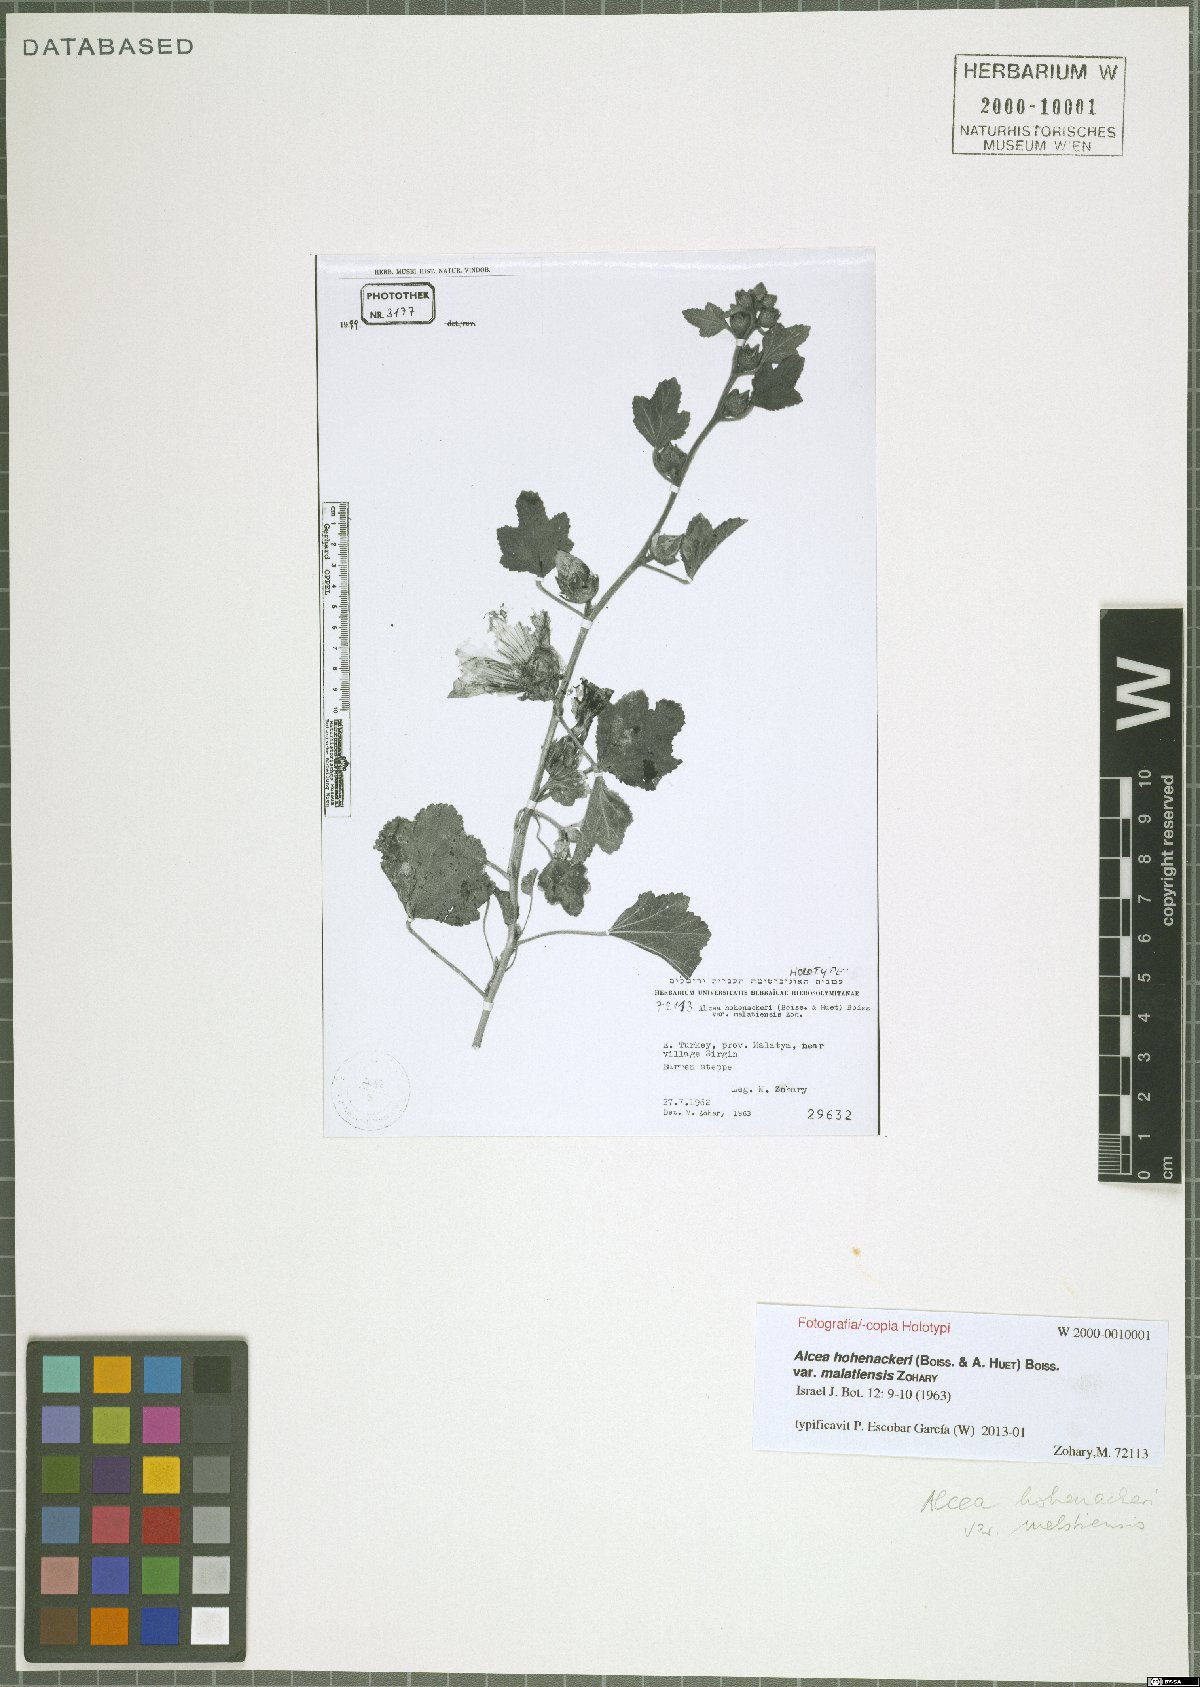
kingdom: Plantae
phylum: Tracheophyta
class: Magnoliopsida
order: Malvales
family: Malvaceae
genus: Alcea
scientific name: Alcea kurdica
